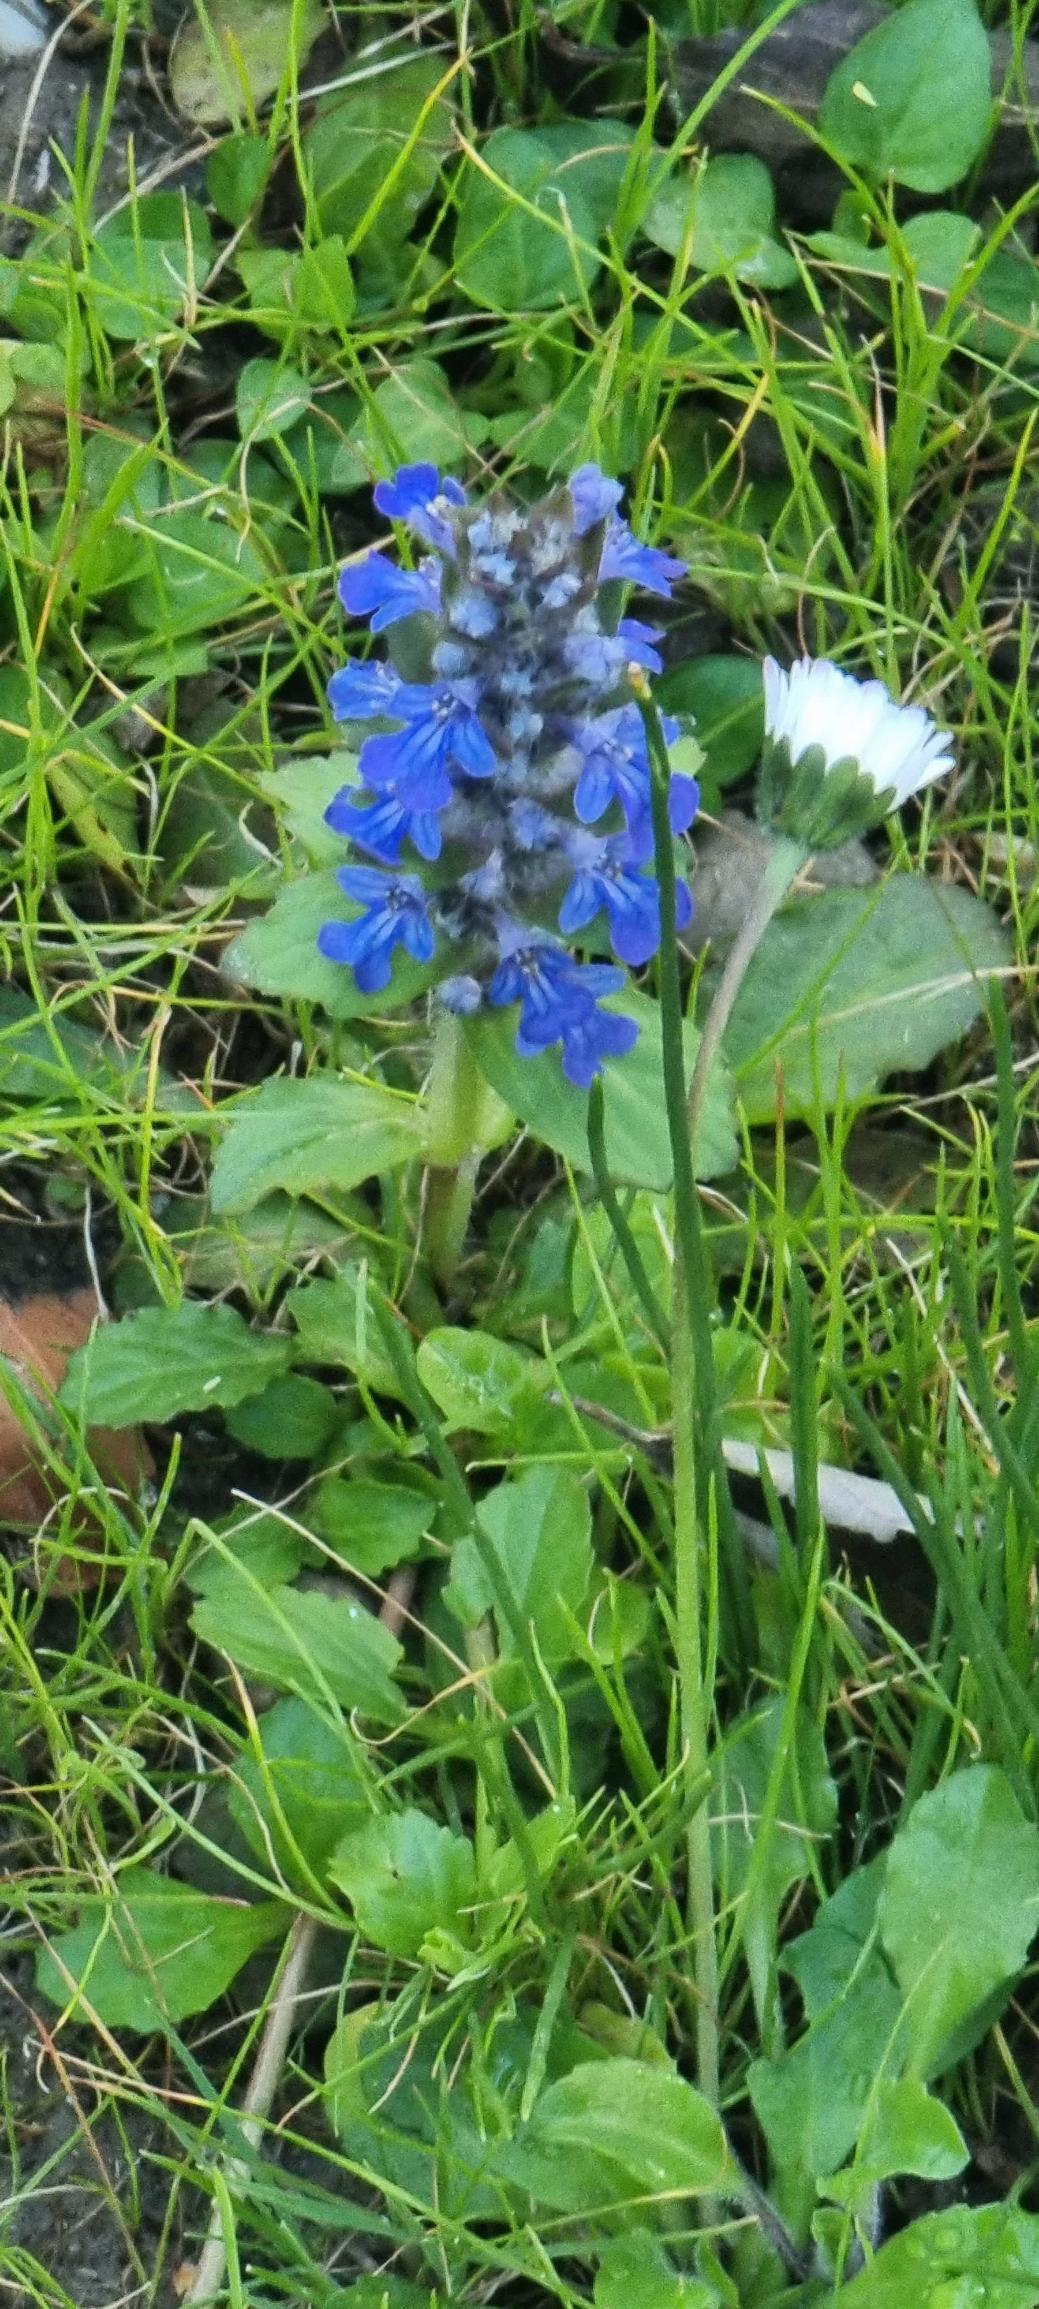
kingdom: Plantae
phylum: Tracheophyta
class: Magnoliopsida
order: Lamiales
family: Lamiaceae
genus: Ajuga
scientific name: Ajuga reptans
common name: Krybende læbeløs
